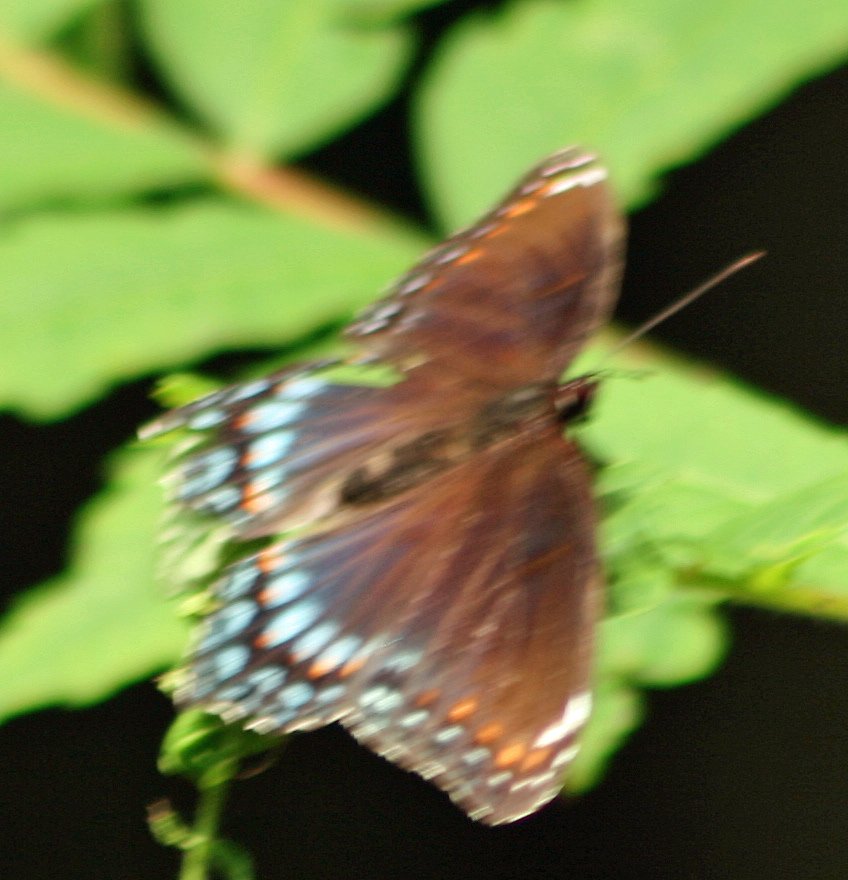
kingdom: Animalia
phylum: Arthropoda
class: Insecta
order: Lepidoptera
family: Nymphalidae
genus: Limenitis
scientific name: Limenitis astyanax
